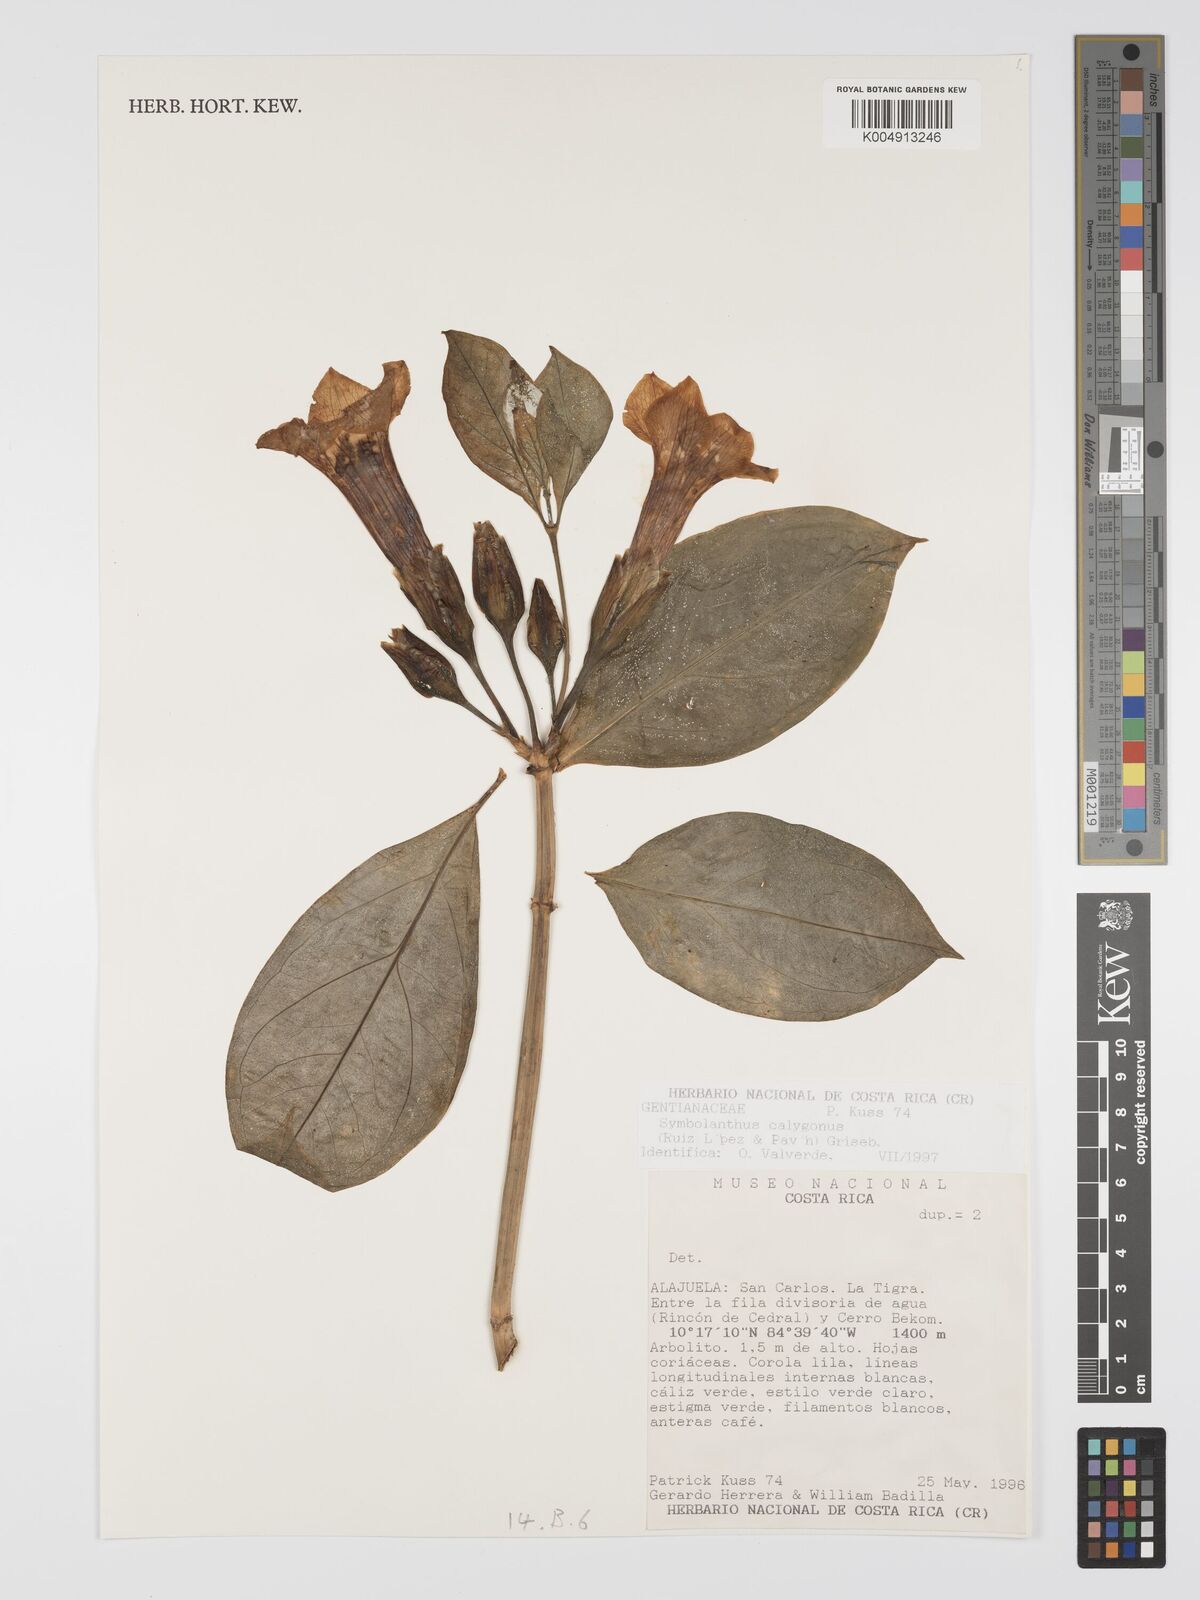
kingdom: Plantae
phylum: Tracheophyta
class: Magnoliopsida
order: Gentianales
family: Gentianaceae
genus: Symbolanthus
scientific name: Symbolanthus calygonus
